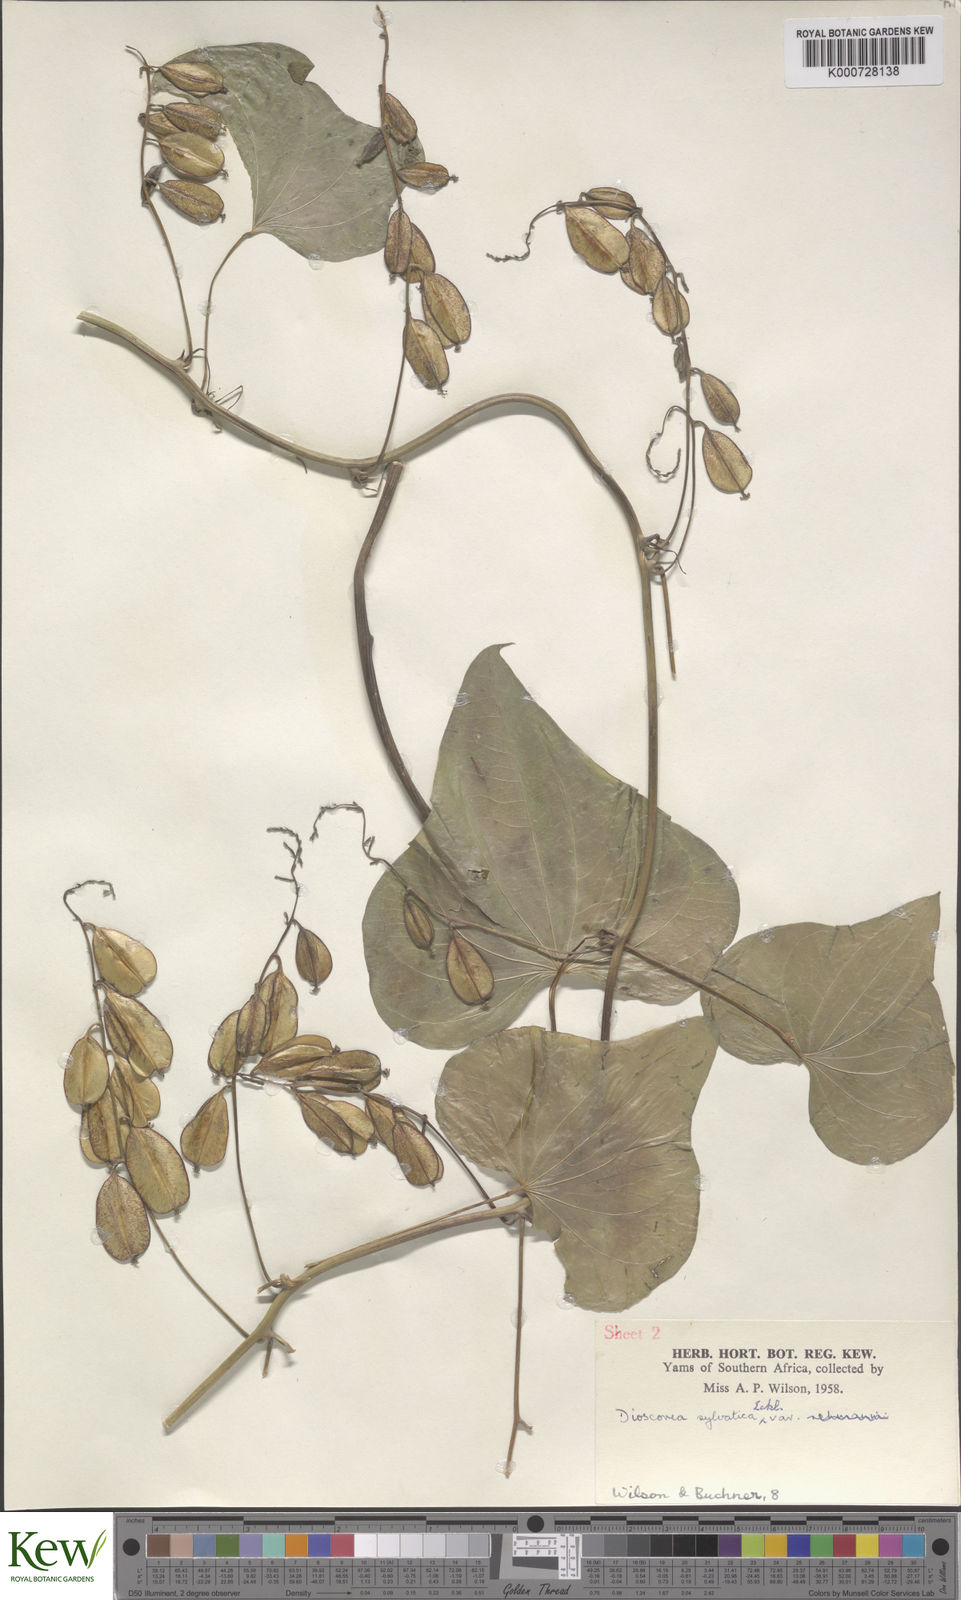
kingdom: Plantae
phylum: Tracheophyta
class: Liliopsida
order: Dioscoreales
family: Dioscoreaceae
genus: Dioscorea
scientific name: Dioscorea sylvatica
